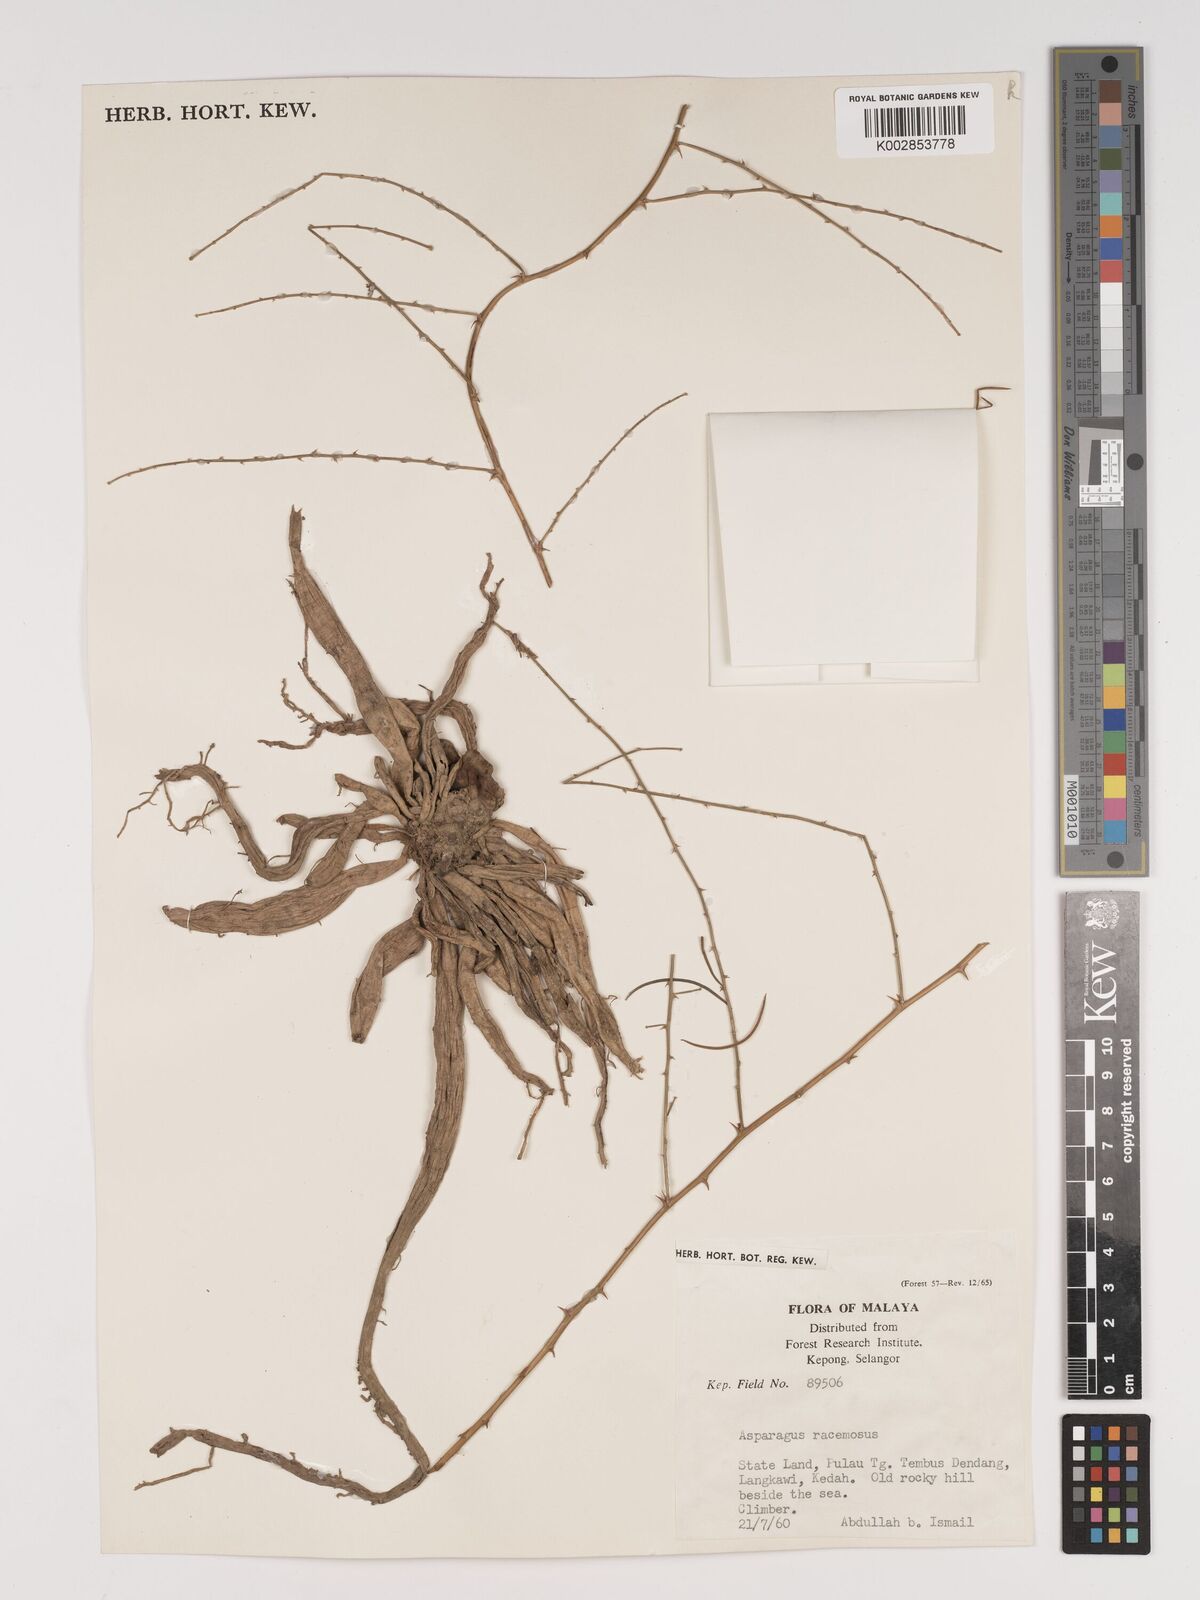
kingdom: Plantae
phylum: Tracheophyta
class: Liliopsida
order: Asparagales
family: Asparagaceae
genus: Asparagus
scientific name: Asparagus racemosus
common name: Asparagus-fern
